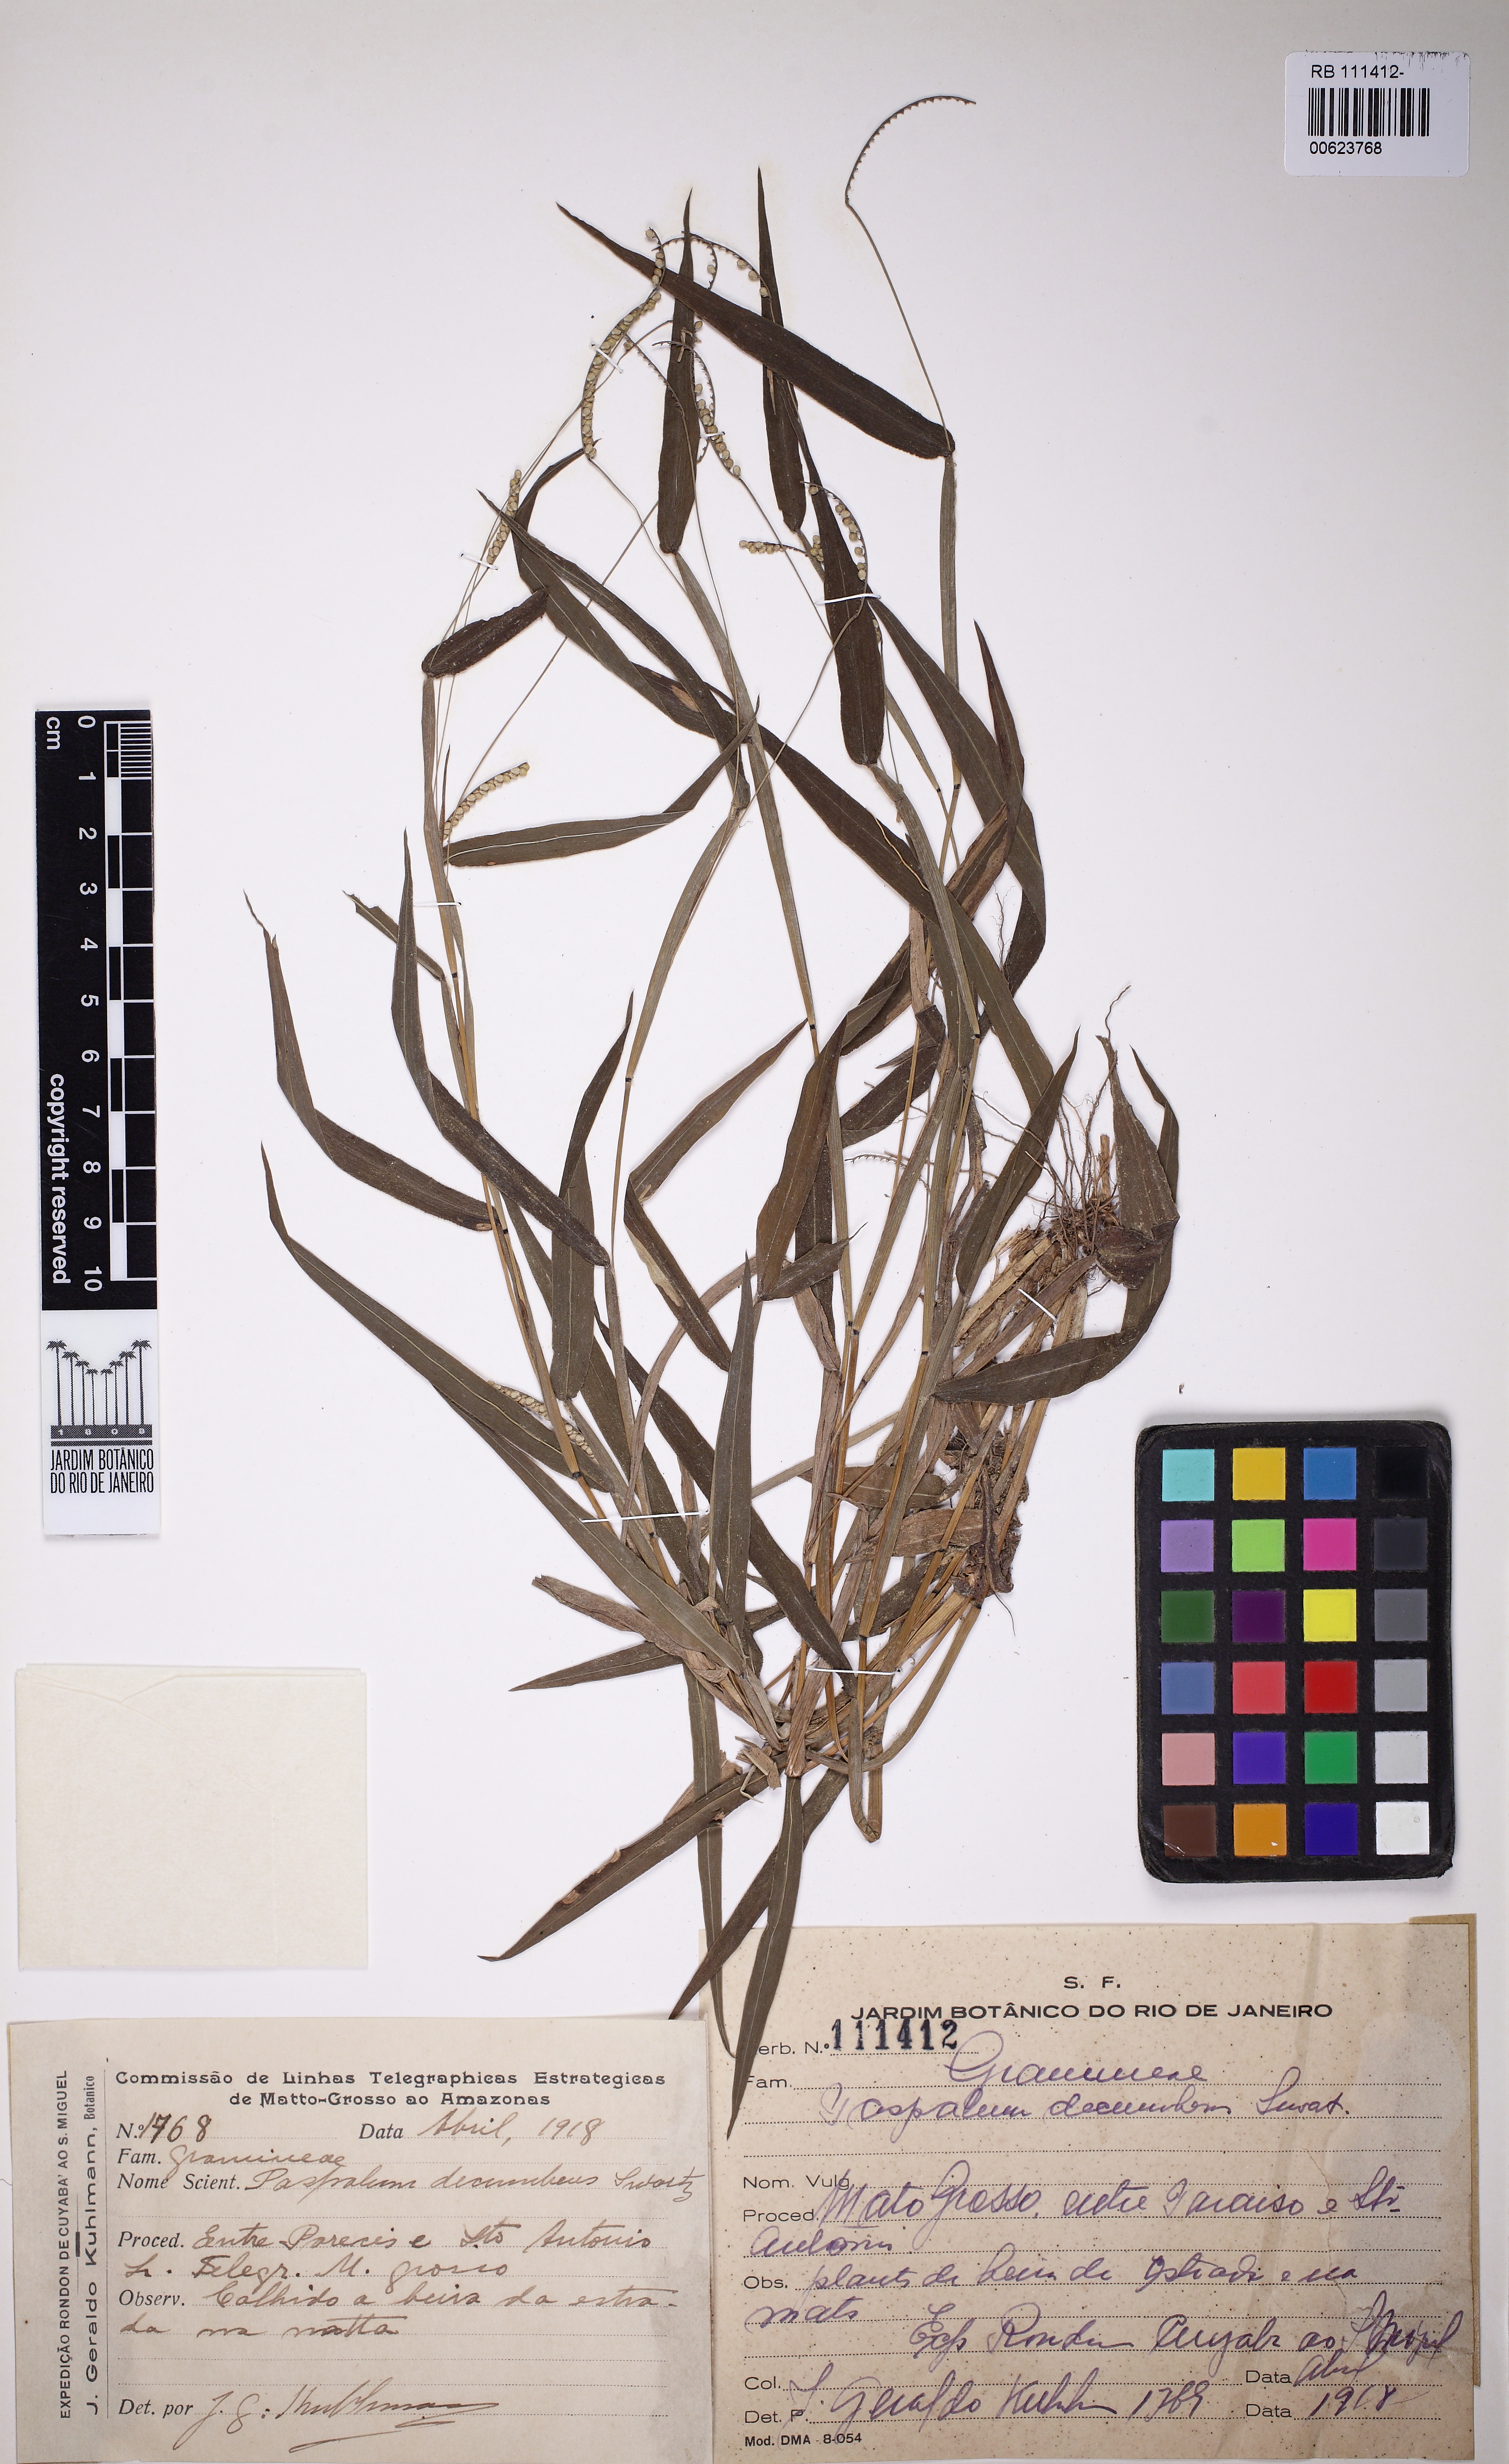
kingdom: Plantae
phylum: Tracheophyta
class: Liliopsida
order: Poales
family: Poaceae
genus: Paspalum
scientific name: Paspalum decumbens
